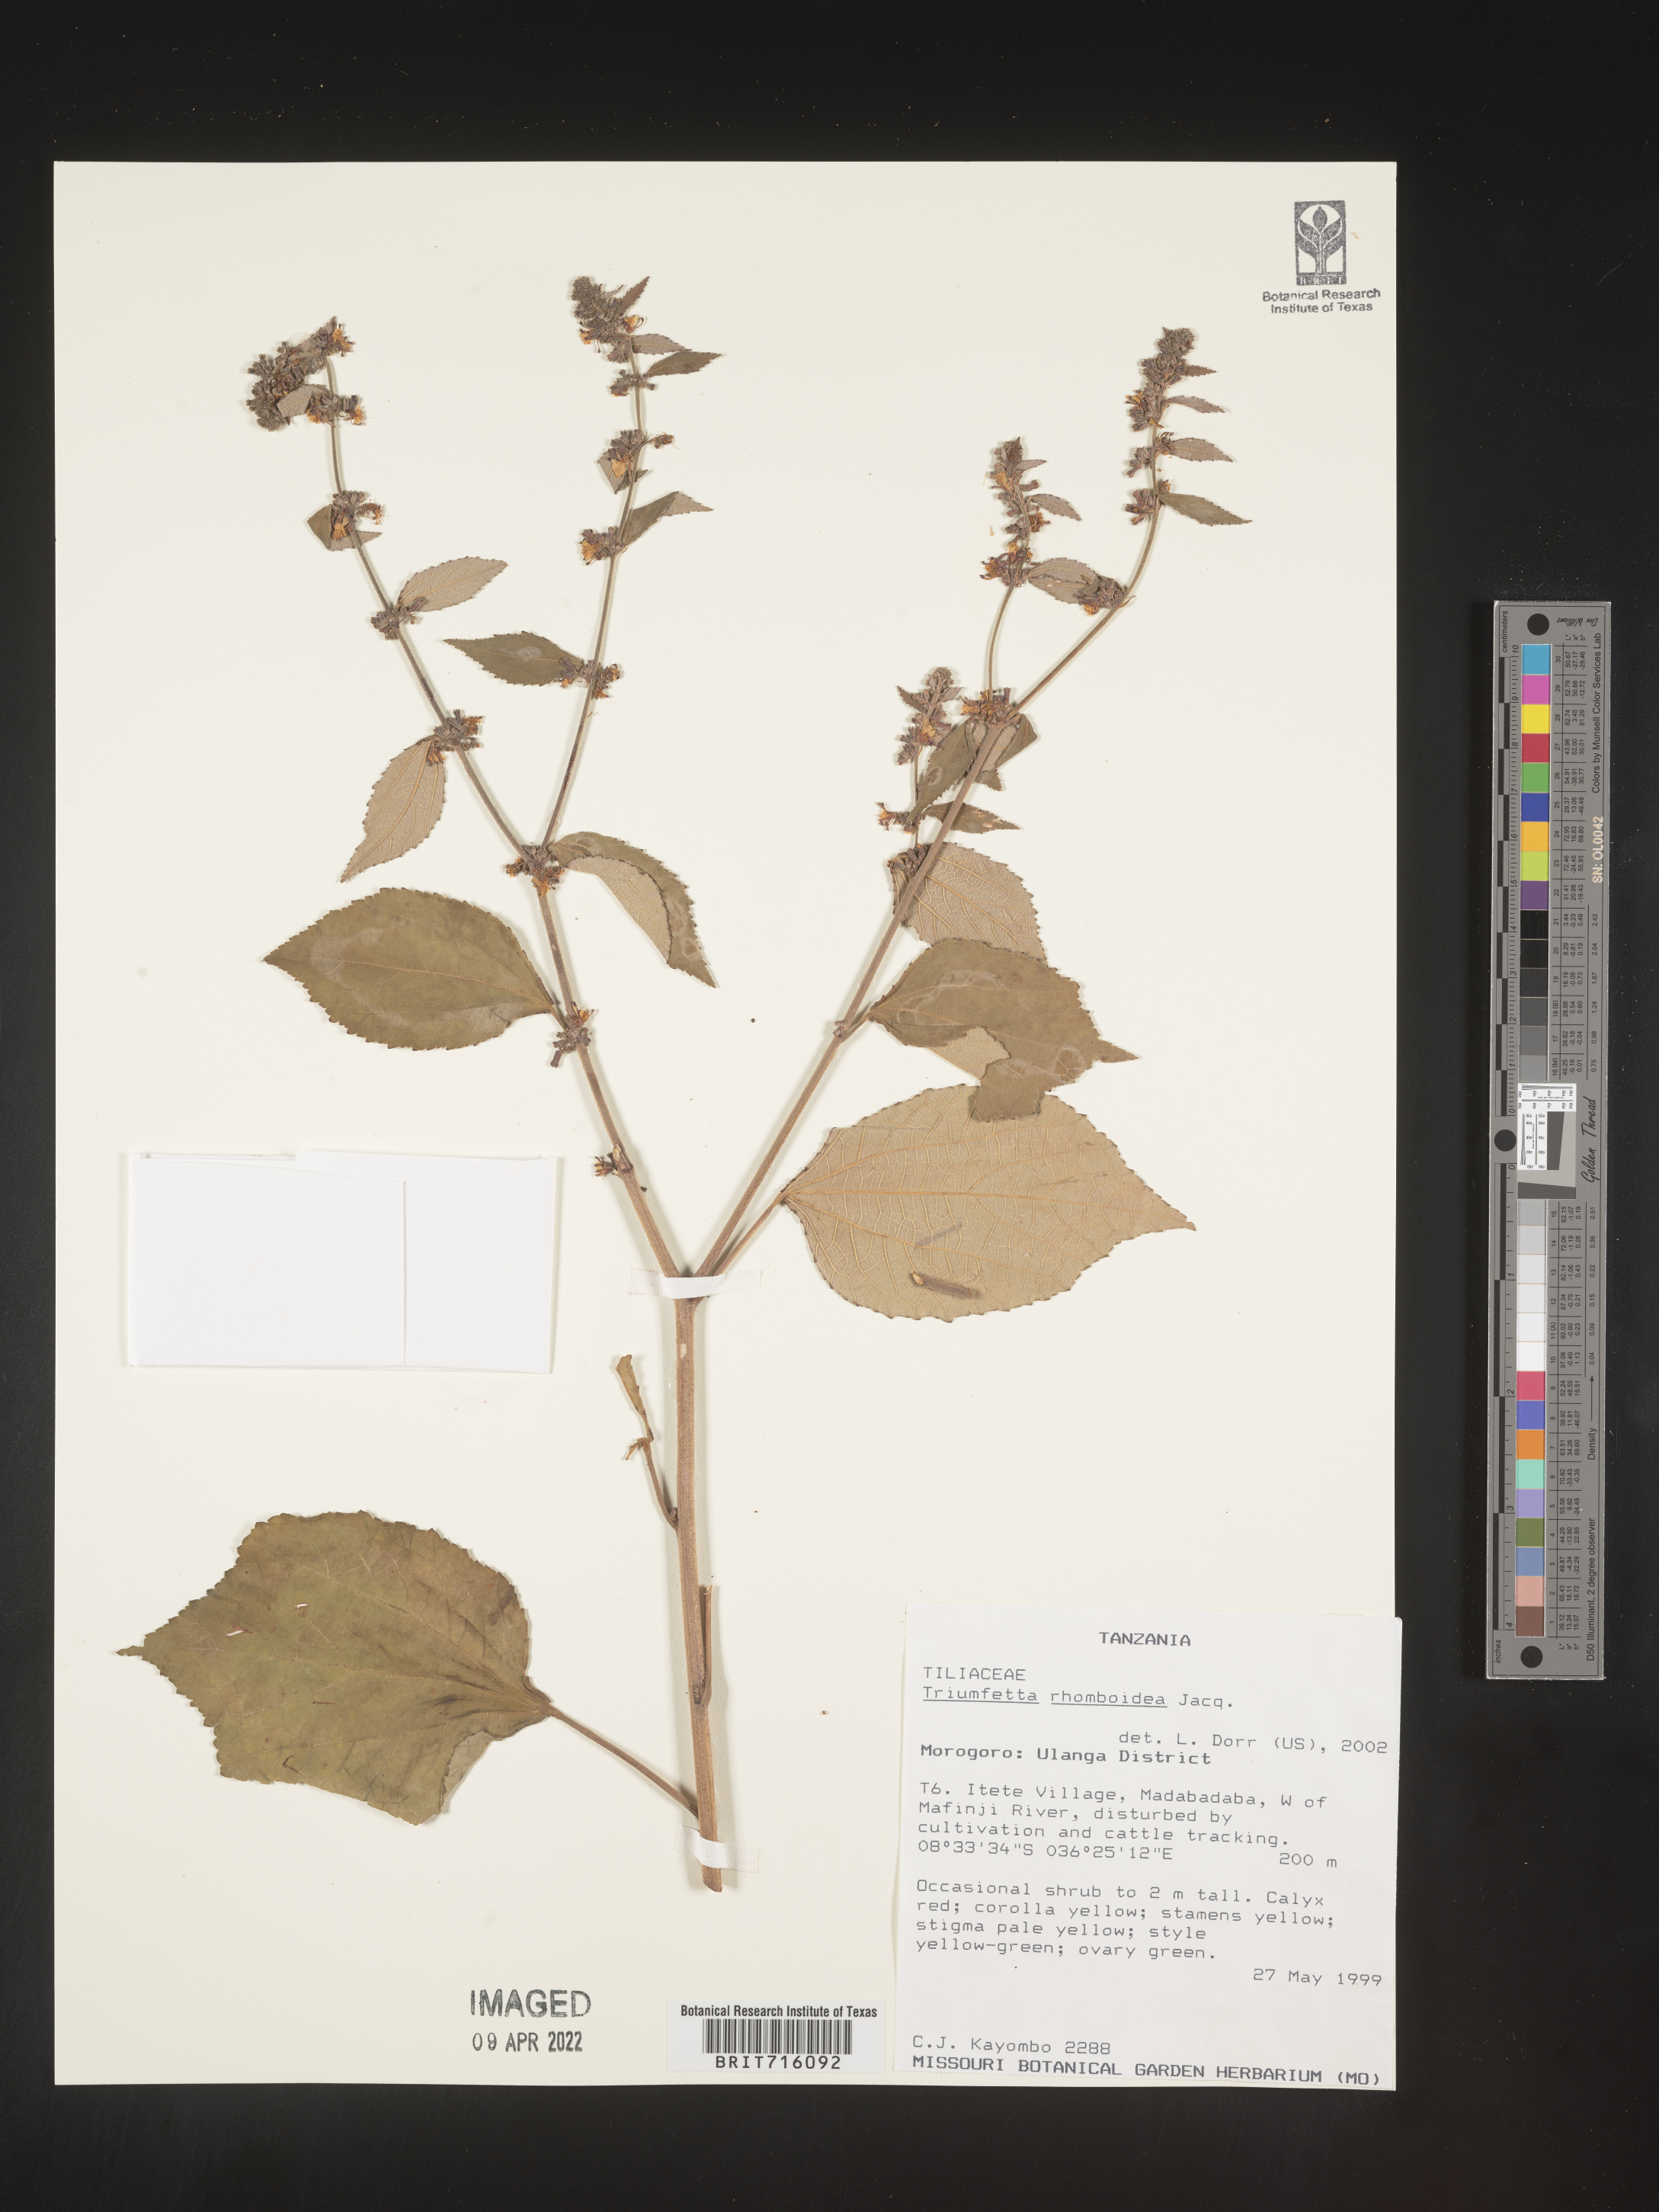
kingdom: Plantae
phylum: Tracheophyta
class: Magnoliopsida
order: Malvales
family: Malvaceae
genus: Triumfetta
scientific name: Triumfetta rhomboidea
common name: Diamond burbark
